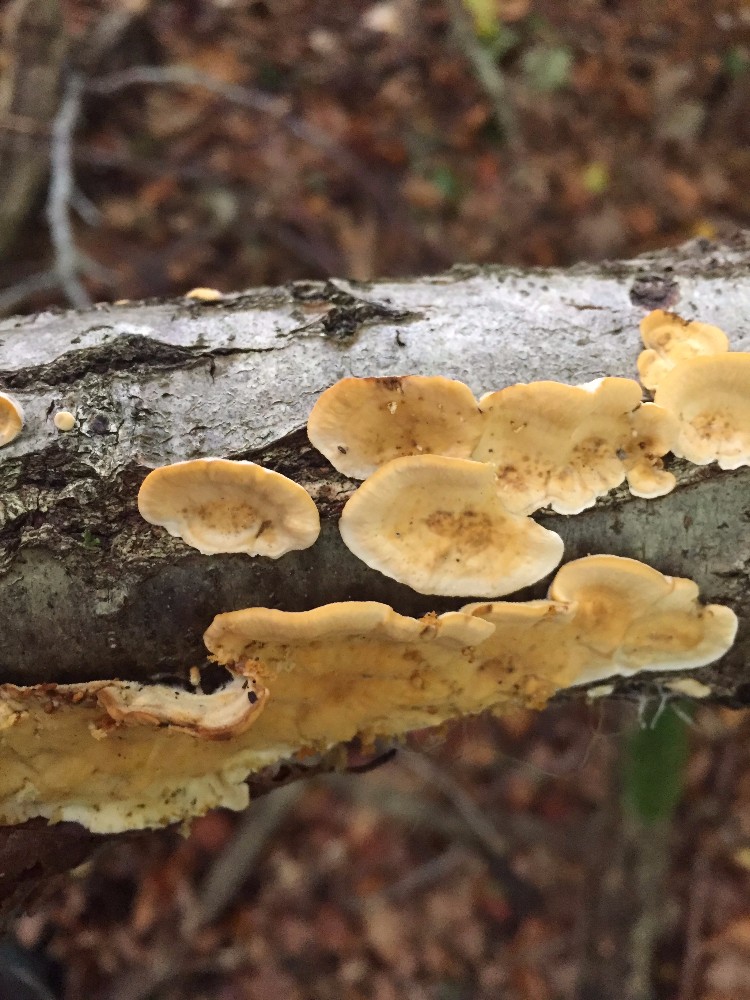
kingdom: Fungi
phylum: Basidiomycota
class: Agaricomycetes
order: Russulales
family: Stereaceae
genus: Stereum
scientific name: Stereum hirsutum
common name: håret lædersvamp
